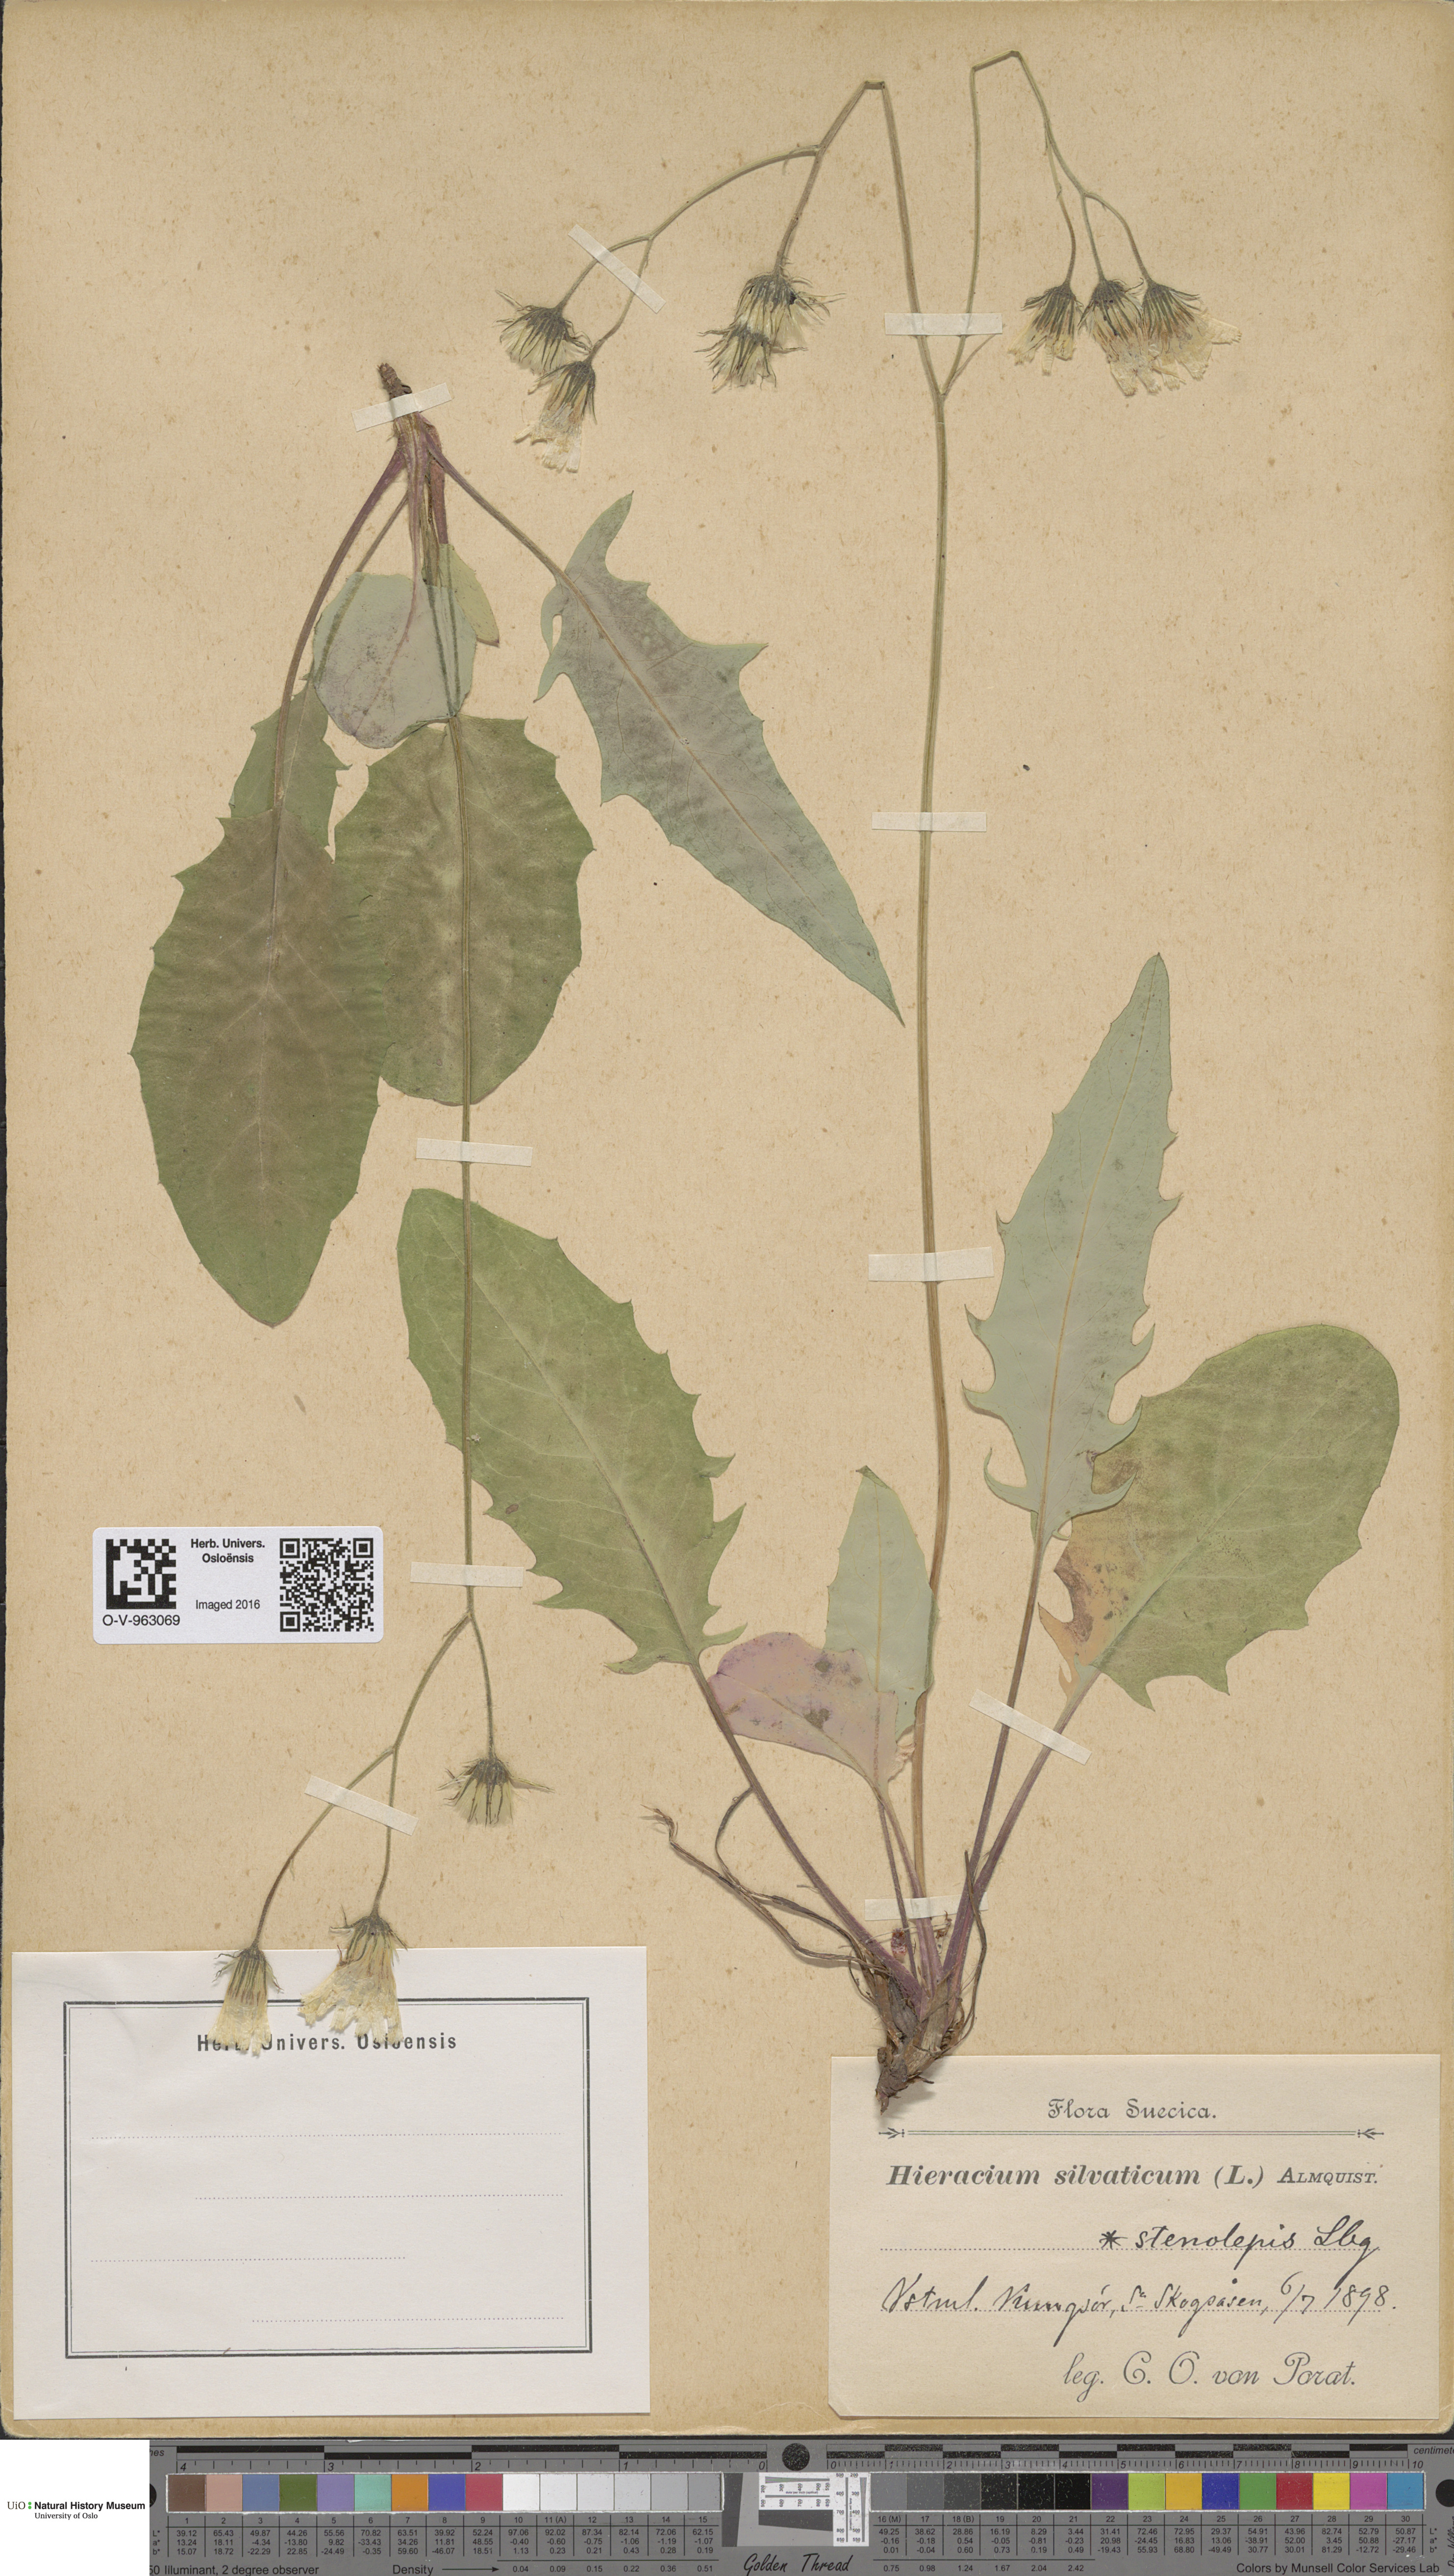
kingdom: Plantae
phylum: Tracheophyta
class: Magnoliopsida
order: Asterales
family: Asteraceae
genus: Hieracium
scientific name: Hieracium bifidum
